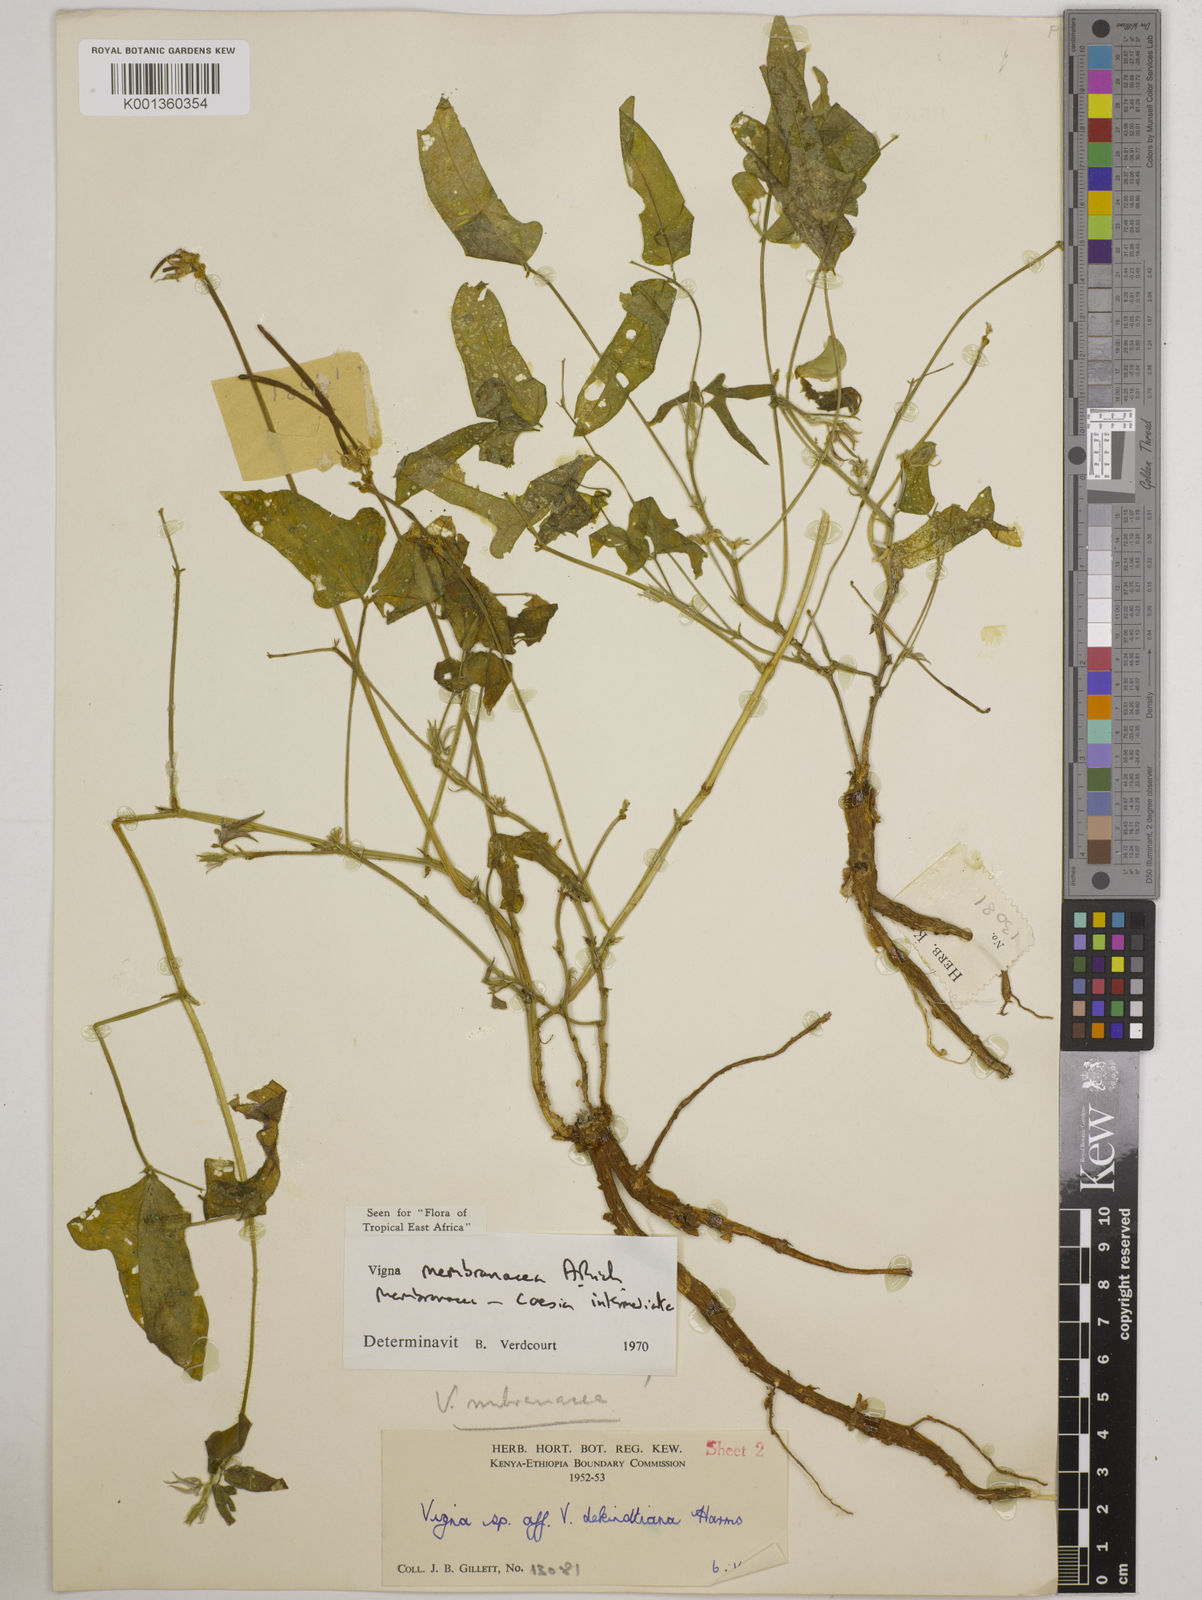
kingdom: Plantae
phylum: Tracheophyta
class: Magnoliopsida
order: Fabales
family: Fabaceae
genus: Vigna
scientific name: Vigna
